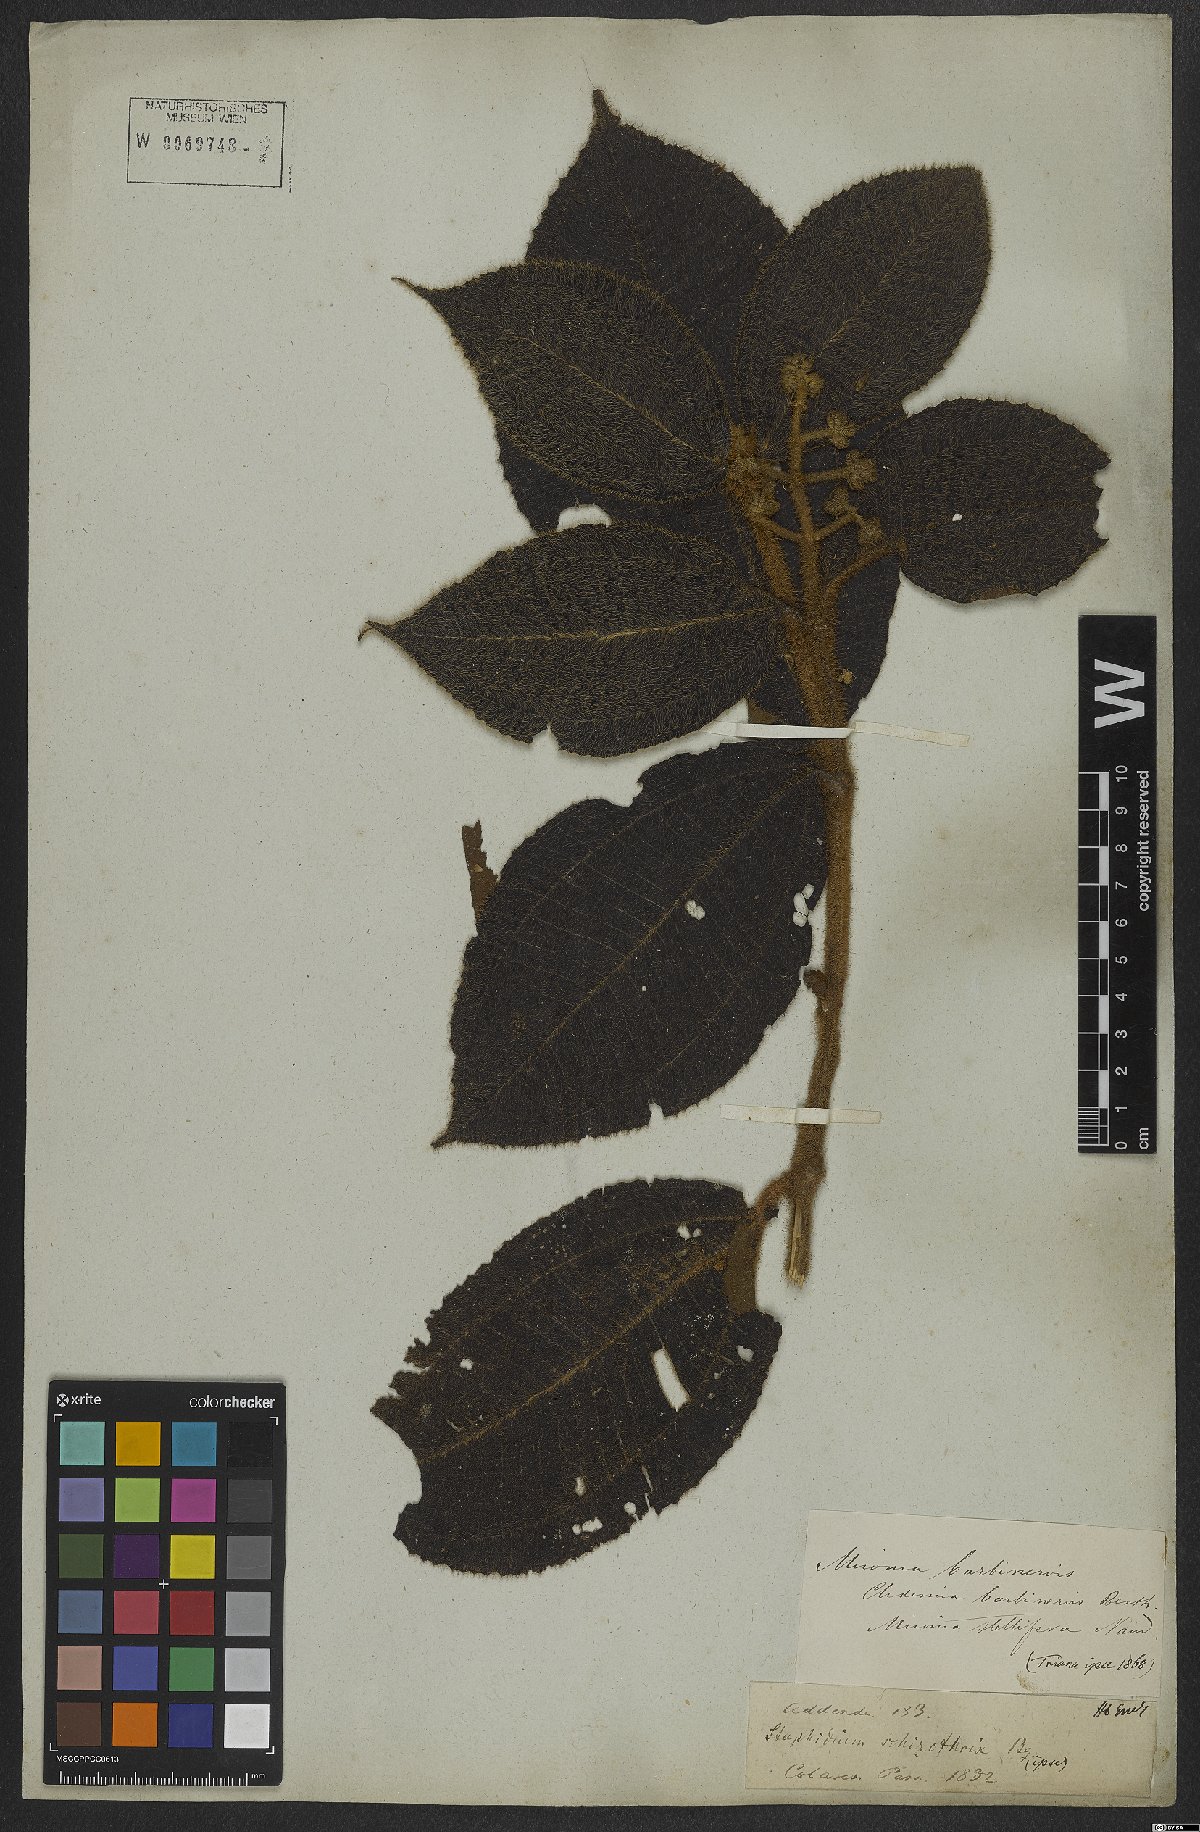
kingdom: Plantae
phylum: Tracheophyta
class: Magnoliopsida
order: Myrtales
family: Melastomataceae
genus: Miconia
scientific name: Miconia barbinervis
